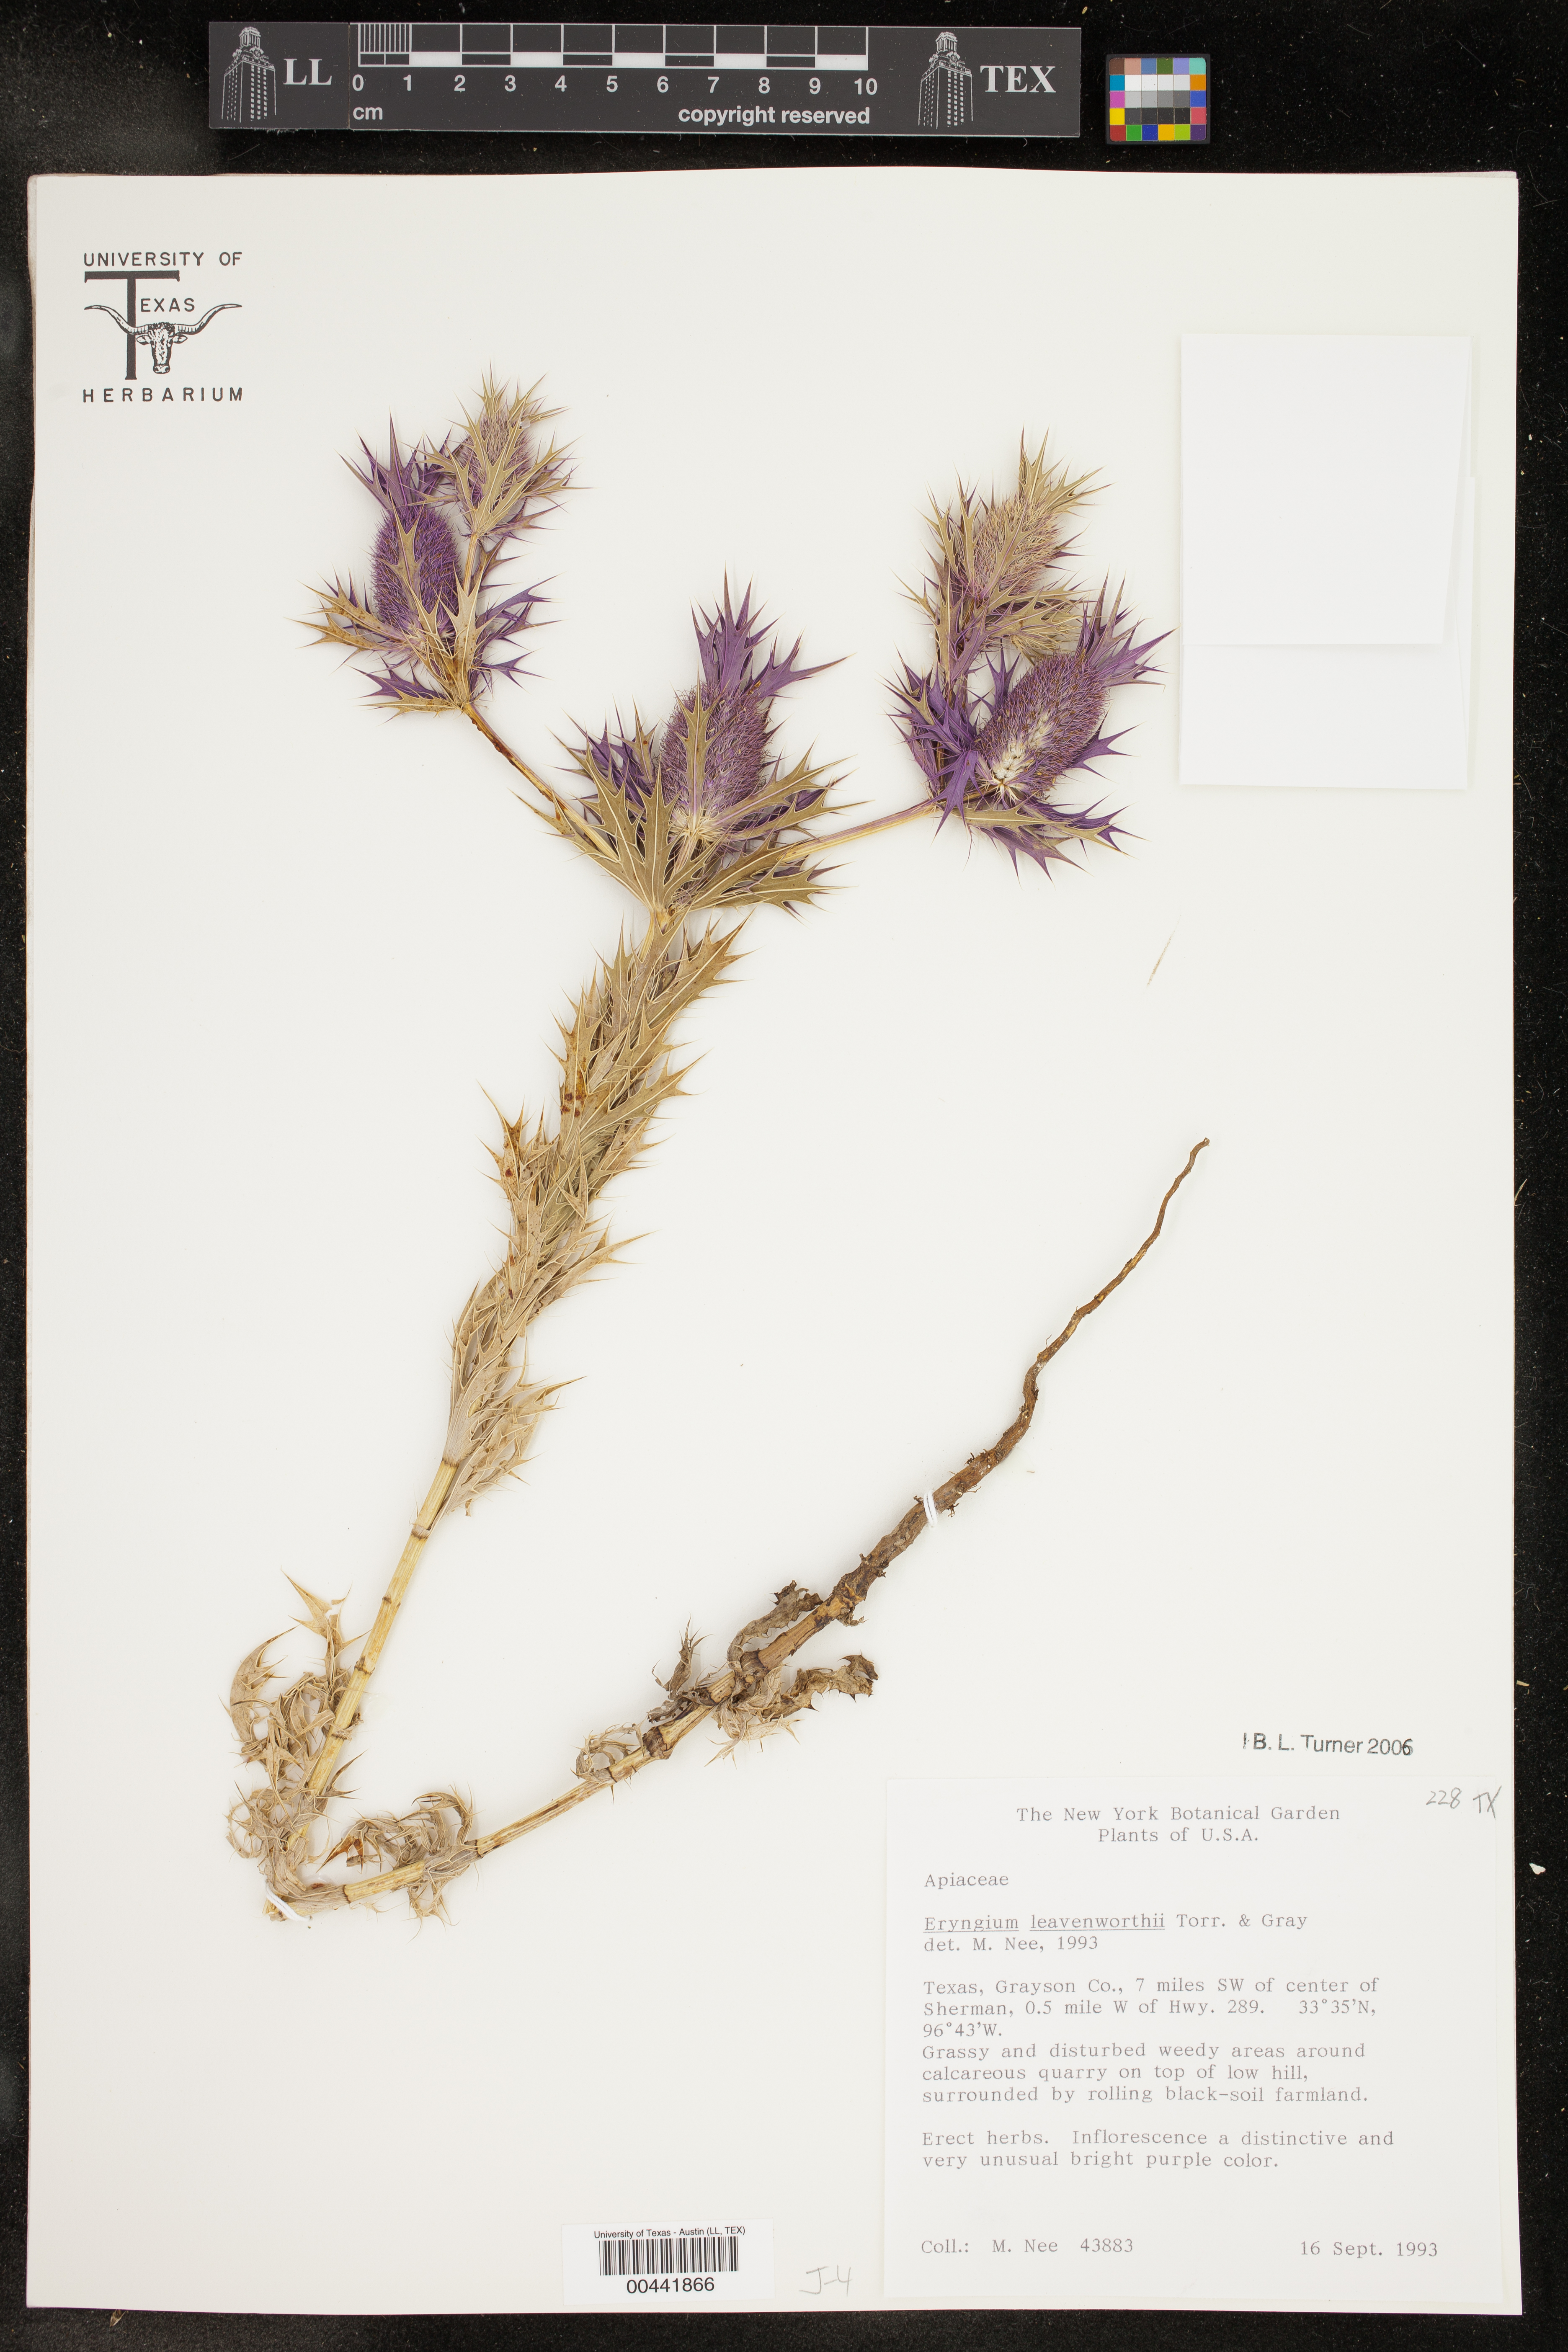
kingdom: Plantae
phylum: Tracheophyta
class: Magnoliopsida
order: Apiales
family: Apiaceae
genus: Eryngium
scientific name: Eryngium leavenworthii
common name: Leavenworth's eryngo
